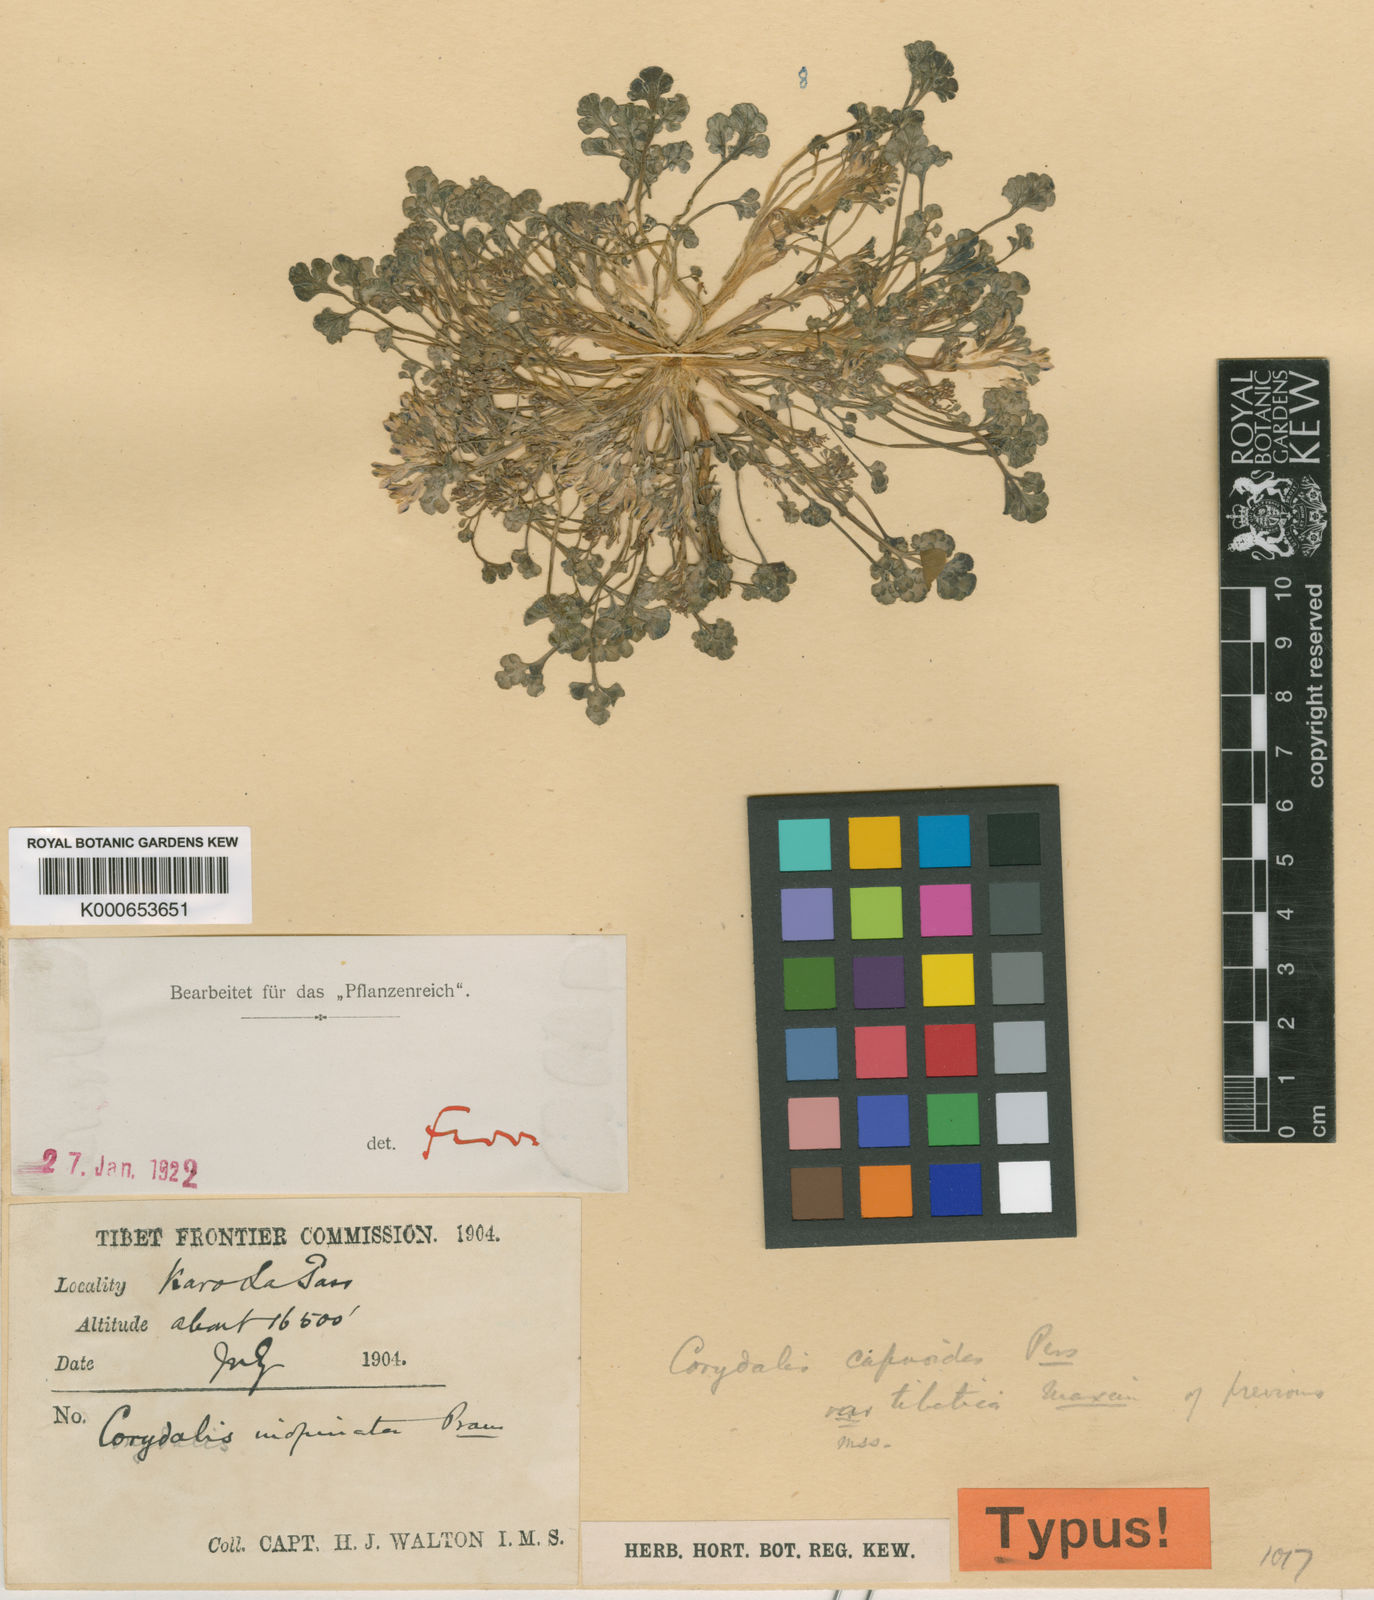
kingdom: Plantae
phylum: Tracheophyta
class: Magnoliopsida
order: Ranunculales
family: Papaveraceae
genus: Corydalis
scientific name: Corydalis inopinata
